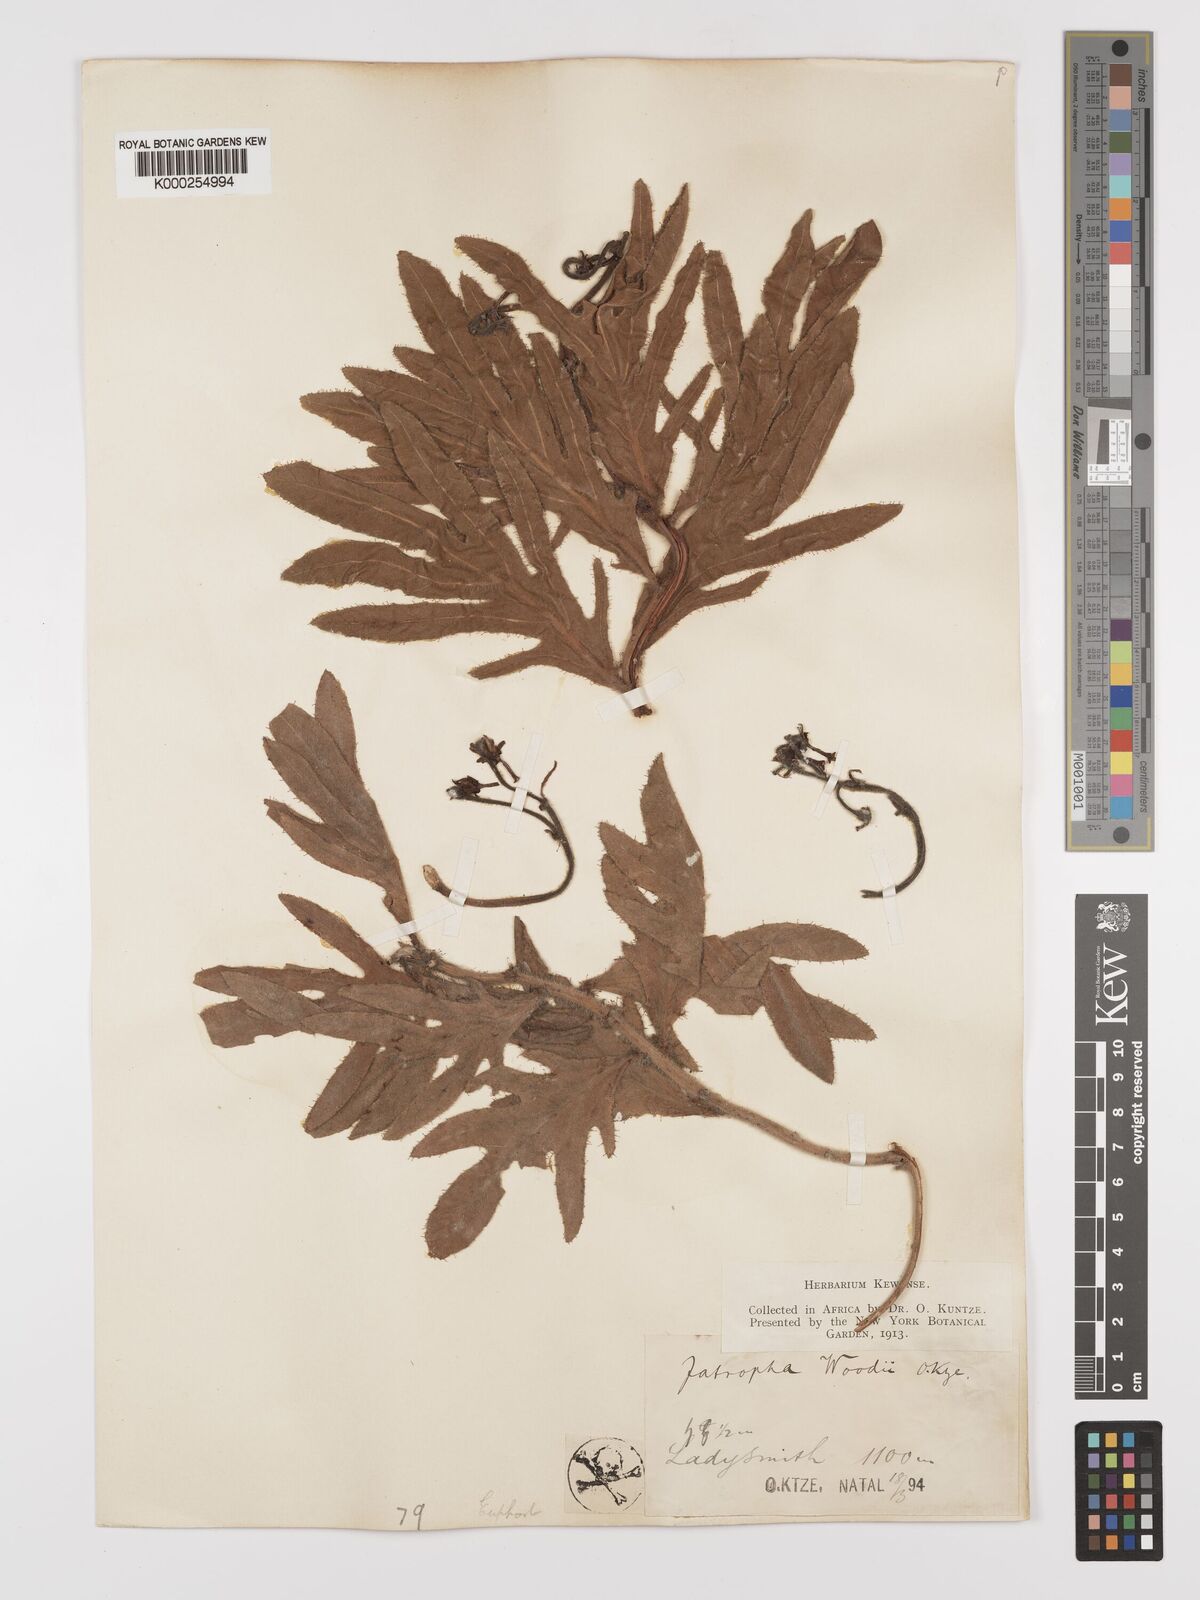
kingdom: Plantae
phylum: Tracheophyta
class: Magnoliopsida
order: Malpighiales
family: Euphorbiaceae
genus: Jatropha
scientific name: Jatropha woodii
